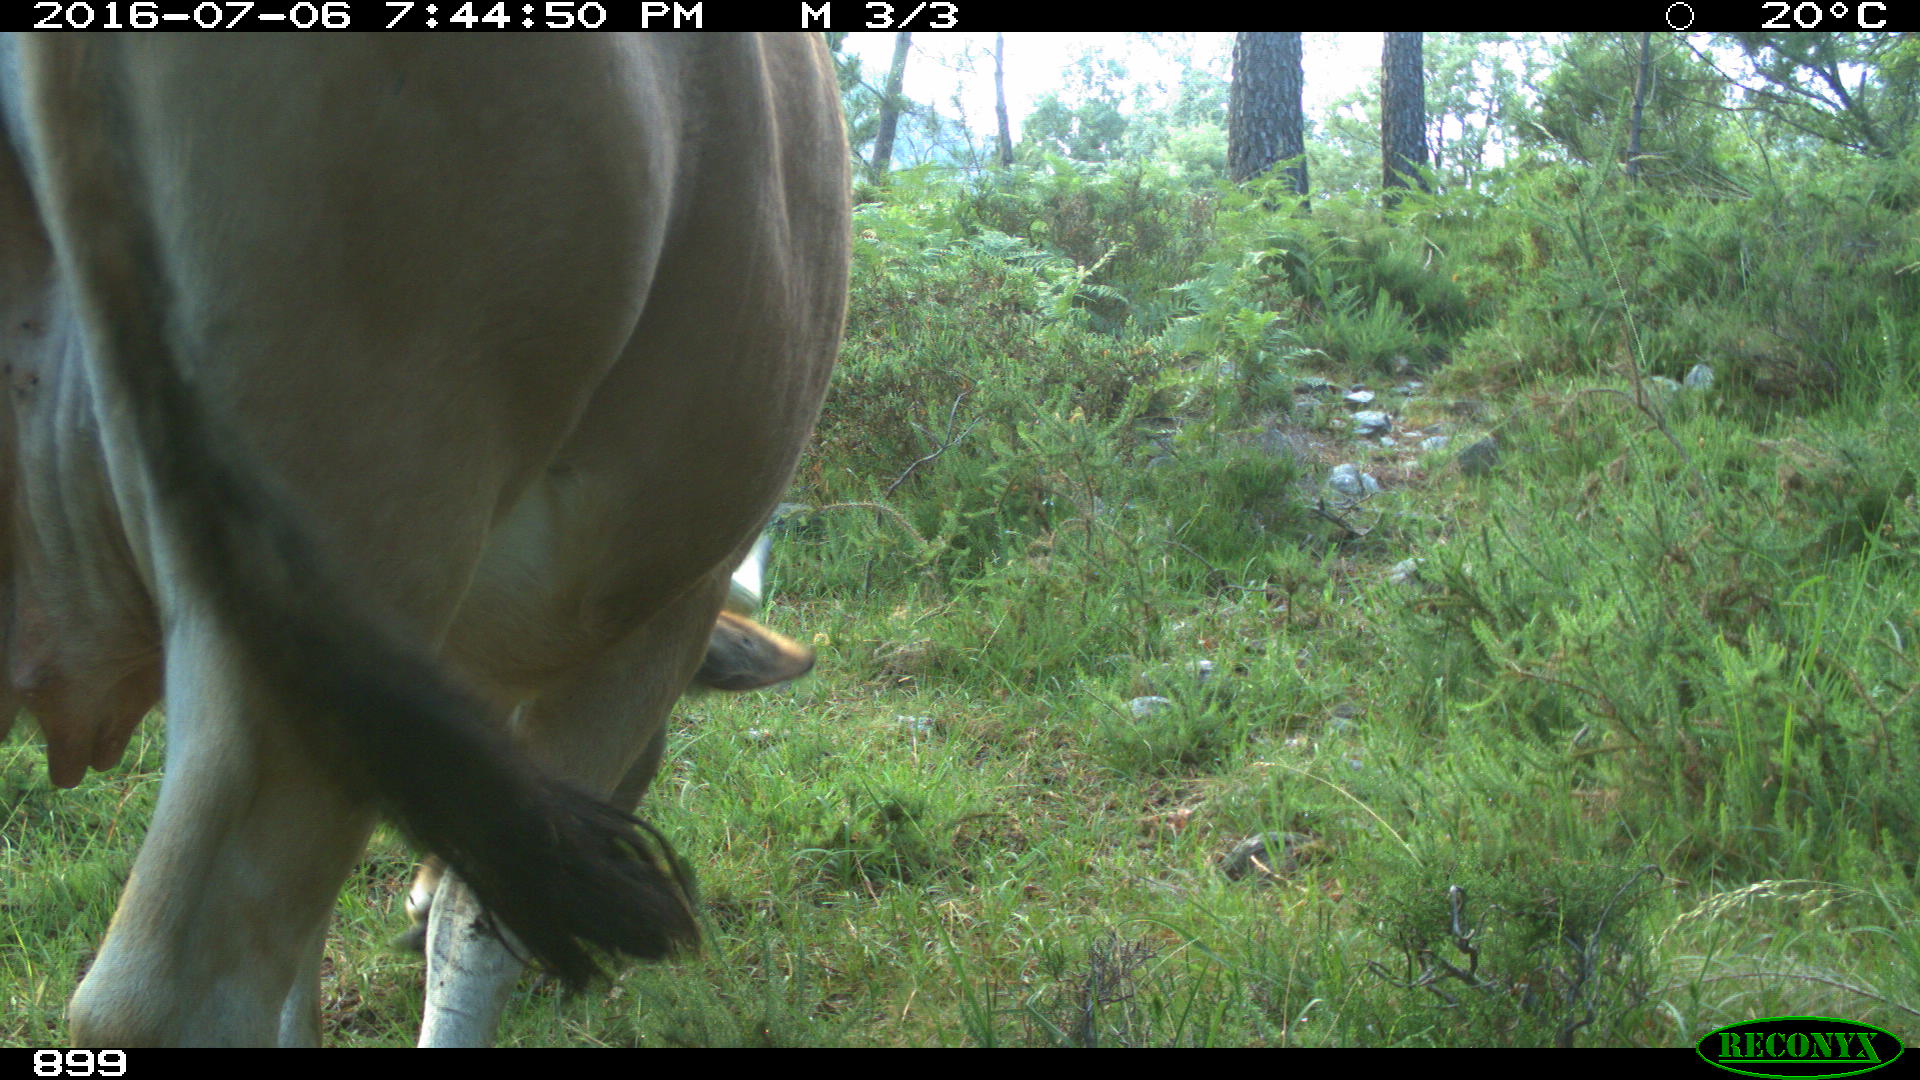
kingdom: Animalia
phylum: Chordata
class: Mammalia
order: Artiodactyla
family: Bovidae
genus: Bos
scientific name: Bos taurus
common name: Domesticated cattle
